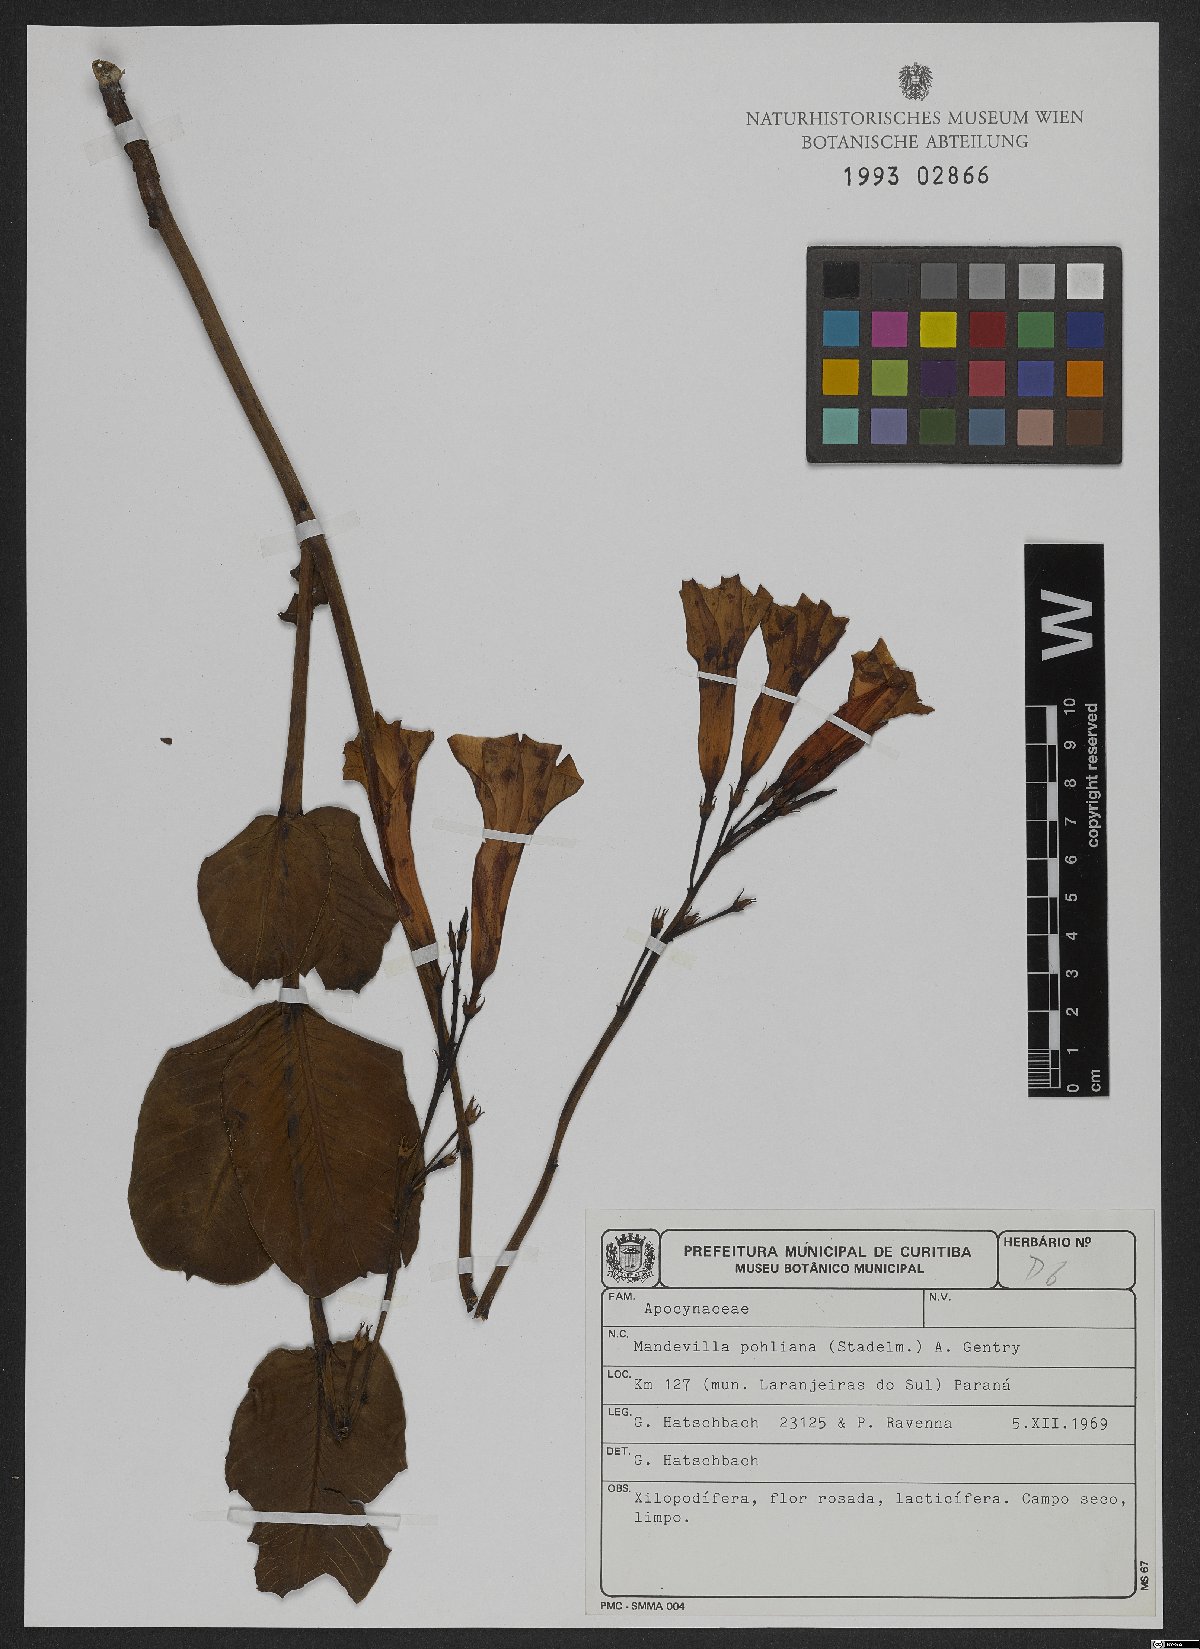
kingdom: Plantae
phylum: Tracheophyta
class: Magnoliopsida
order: Gentianales
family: Apocynaceae
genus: Mandevilla
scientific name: Mandevilla pohliana
